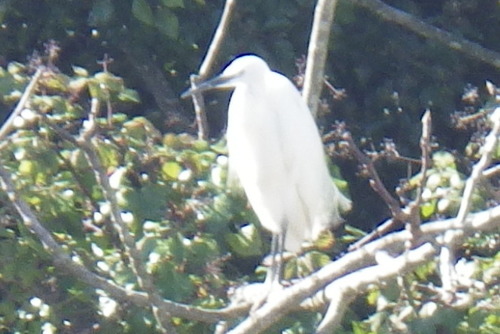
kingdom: Animalia
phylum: Chordata
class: Aves
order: Pelecaniformes
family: Ardeidae
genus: Egretta
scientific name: Egretta garzetta
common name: Little egret
